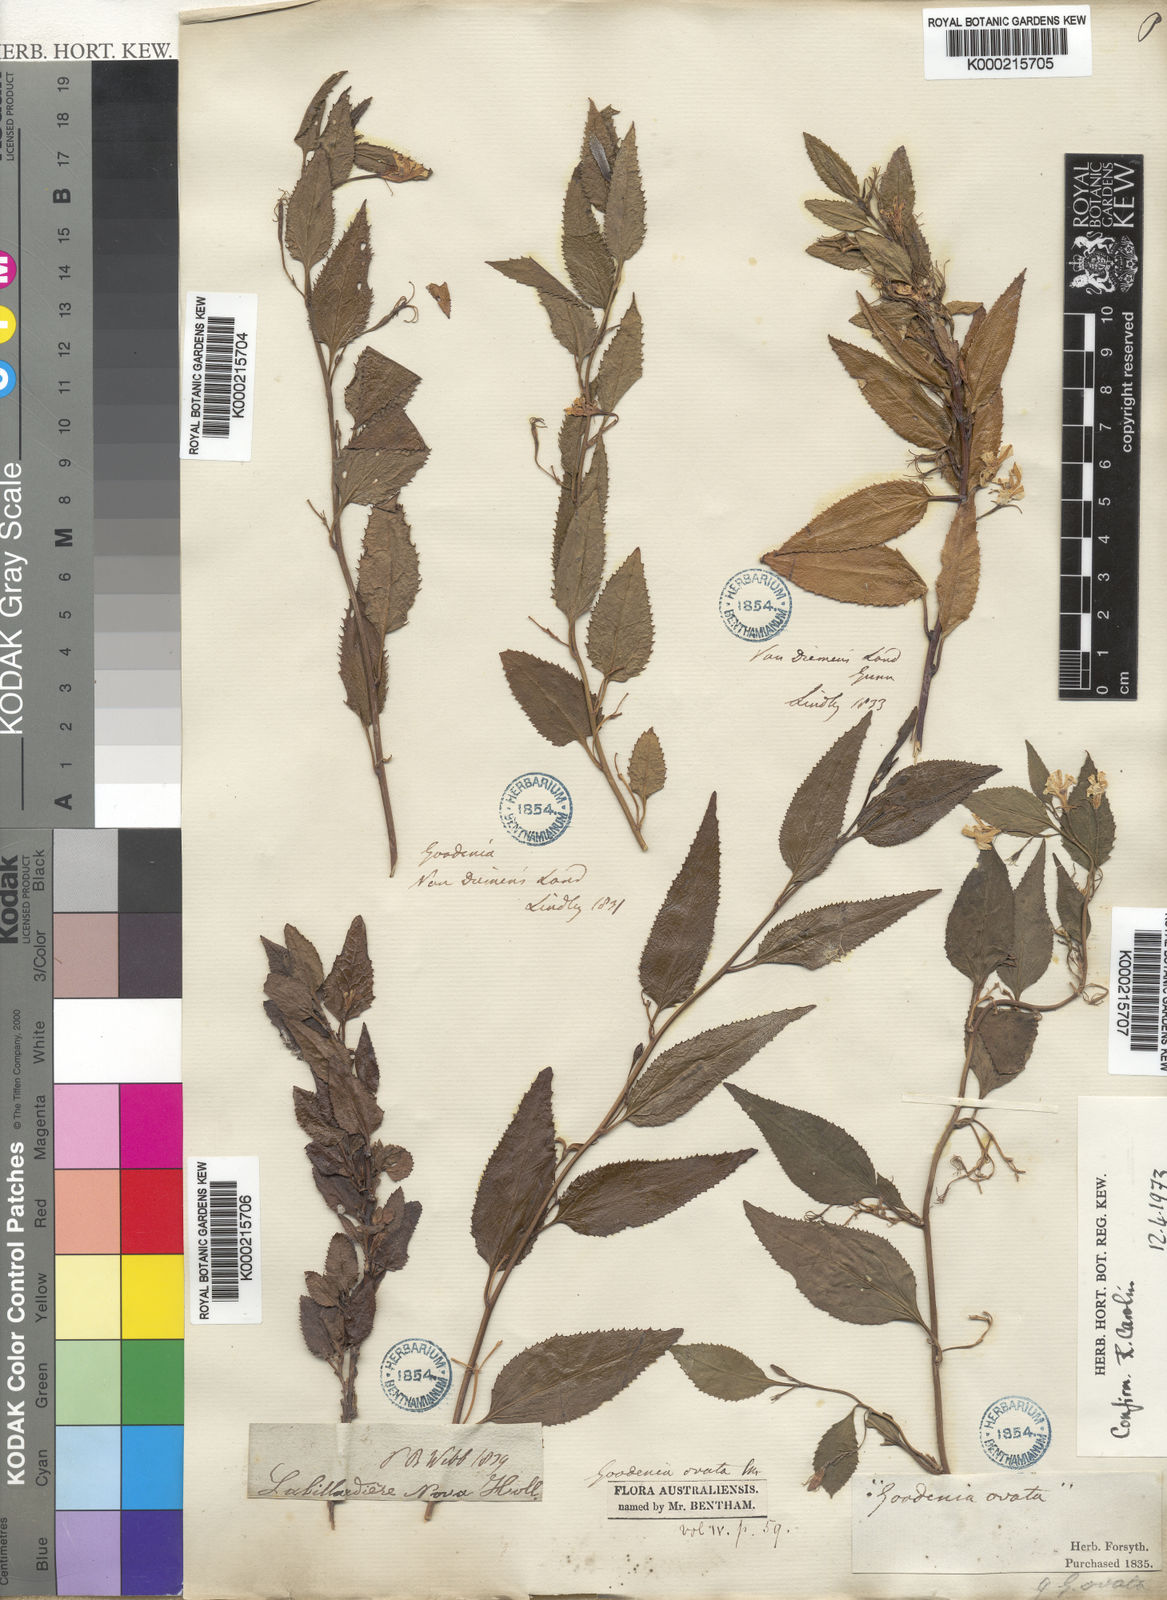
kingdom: Plantae
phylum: Tracheophyta
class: Magnoliopsida
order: Asterales
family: Goodeniaceae
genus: Goodenia
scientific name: Goodenia ovata
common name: Hop goodenia
